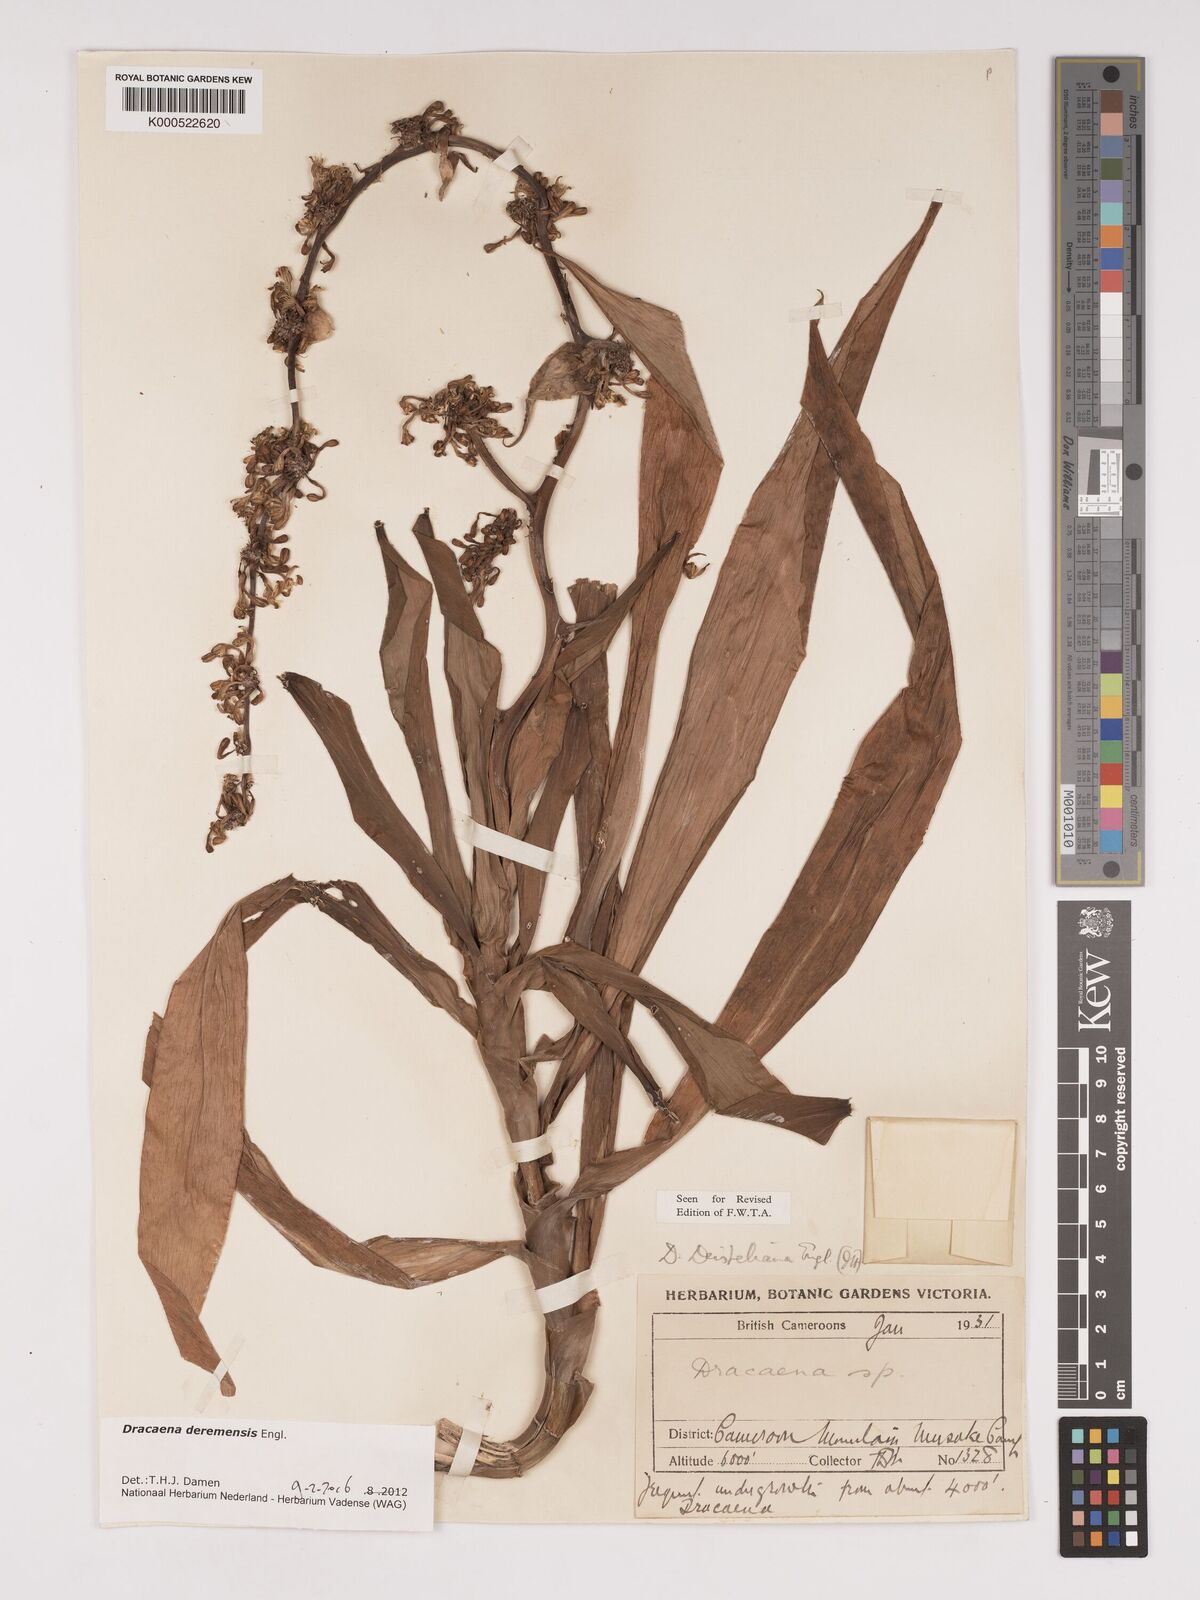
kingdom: Plantae
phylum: Tracheophyta
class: Liliopsida
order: Asparagales
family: Asparagaceae
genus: Dracaena
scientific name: Dracaena fragrans
